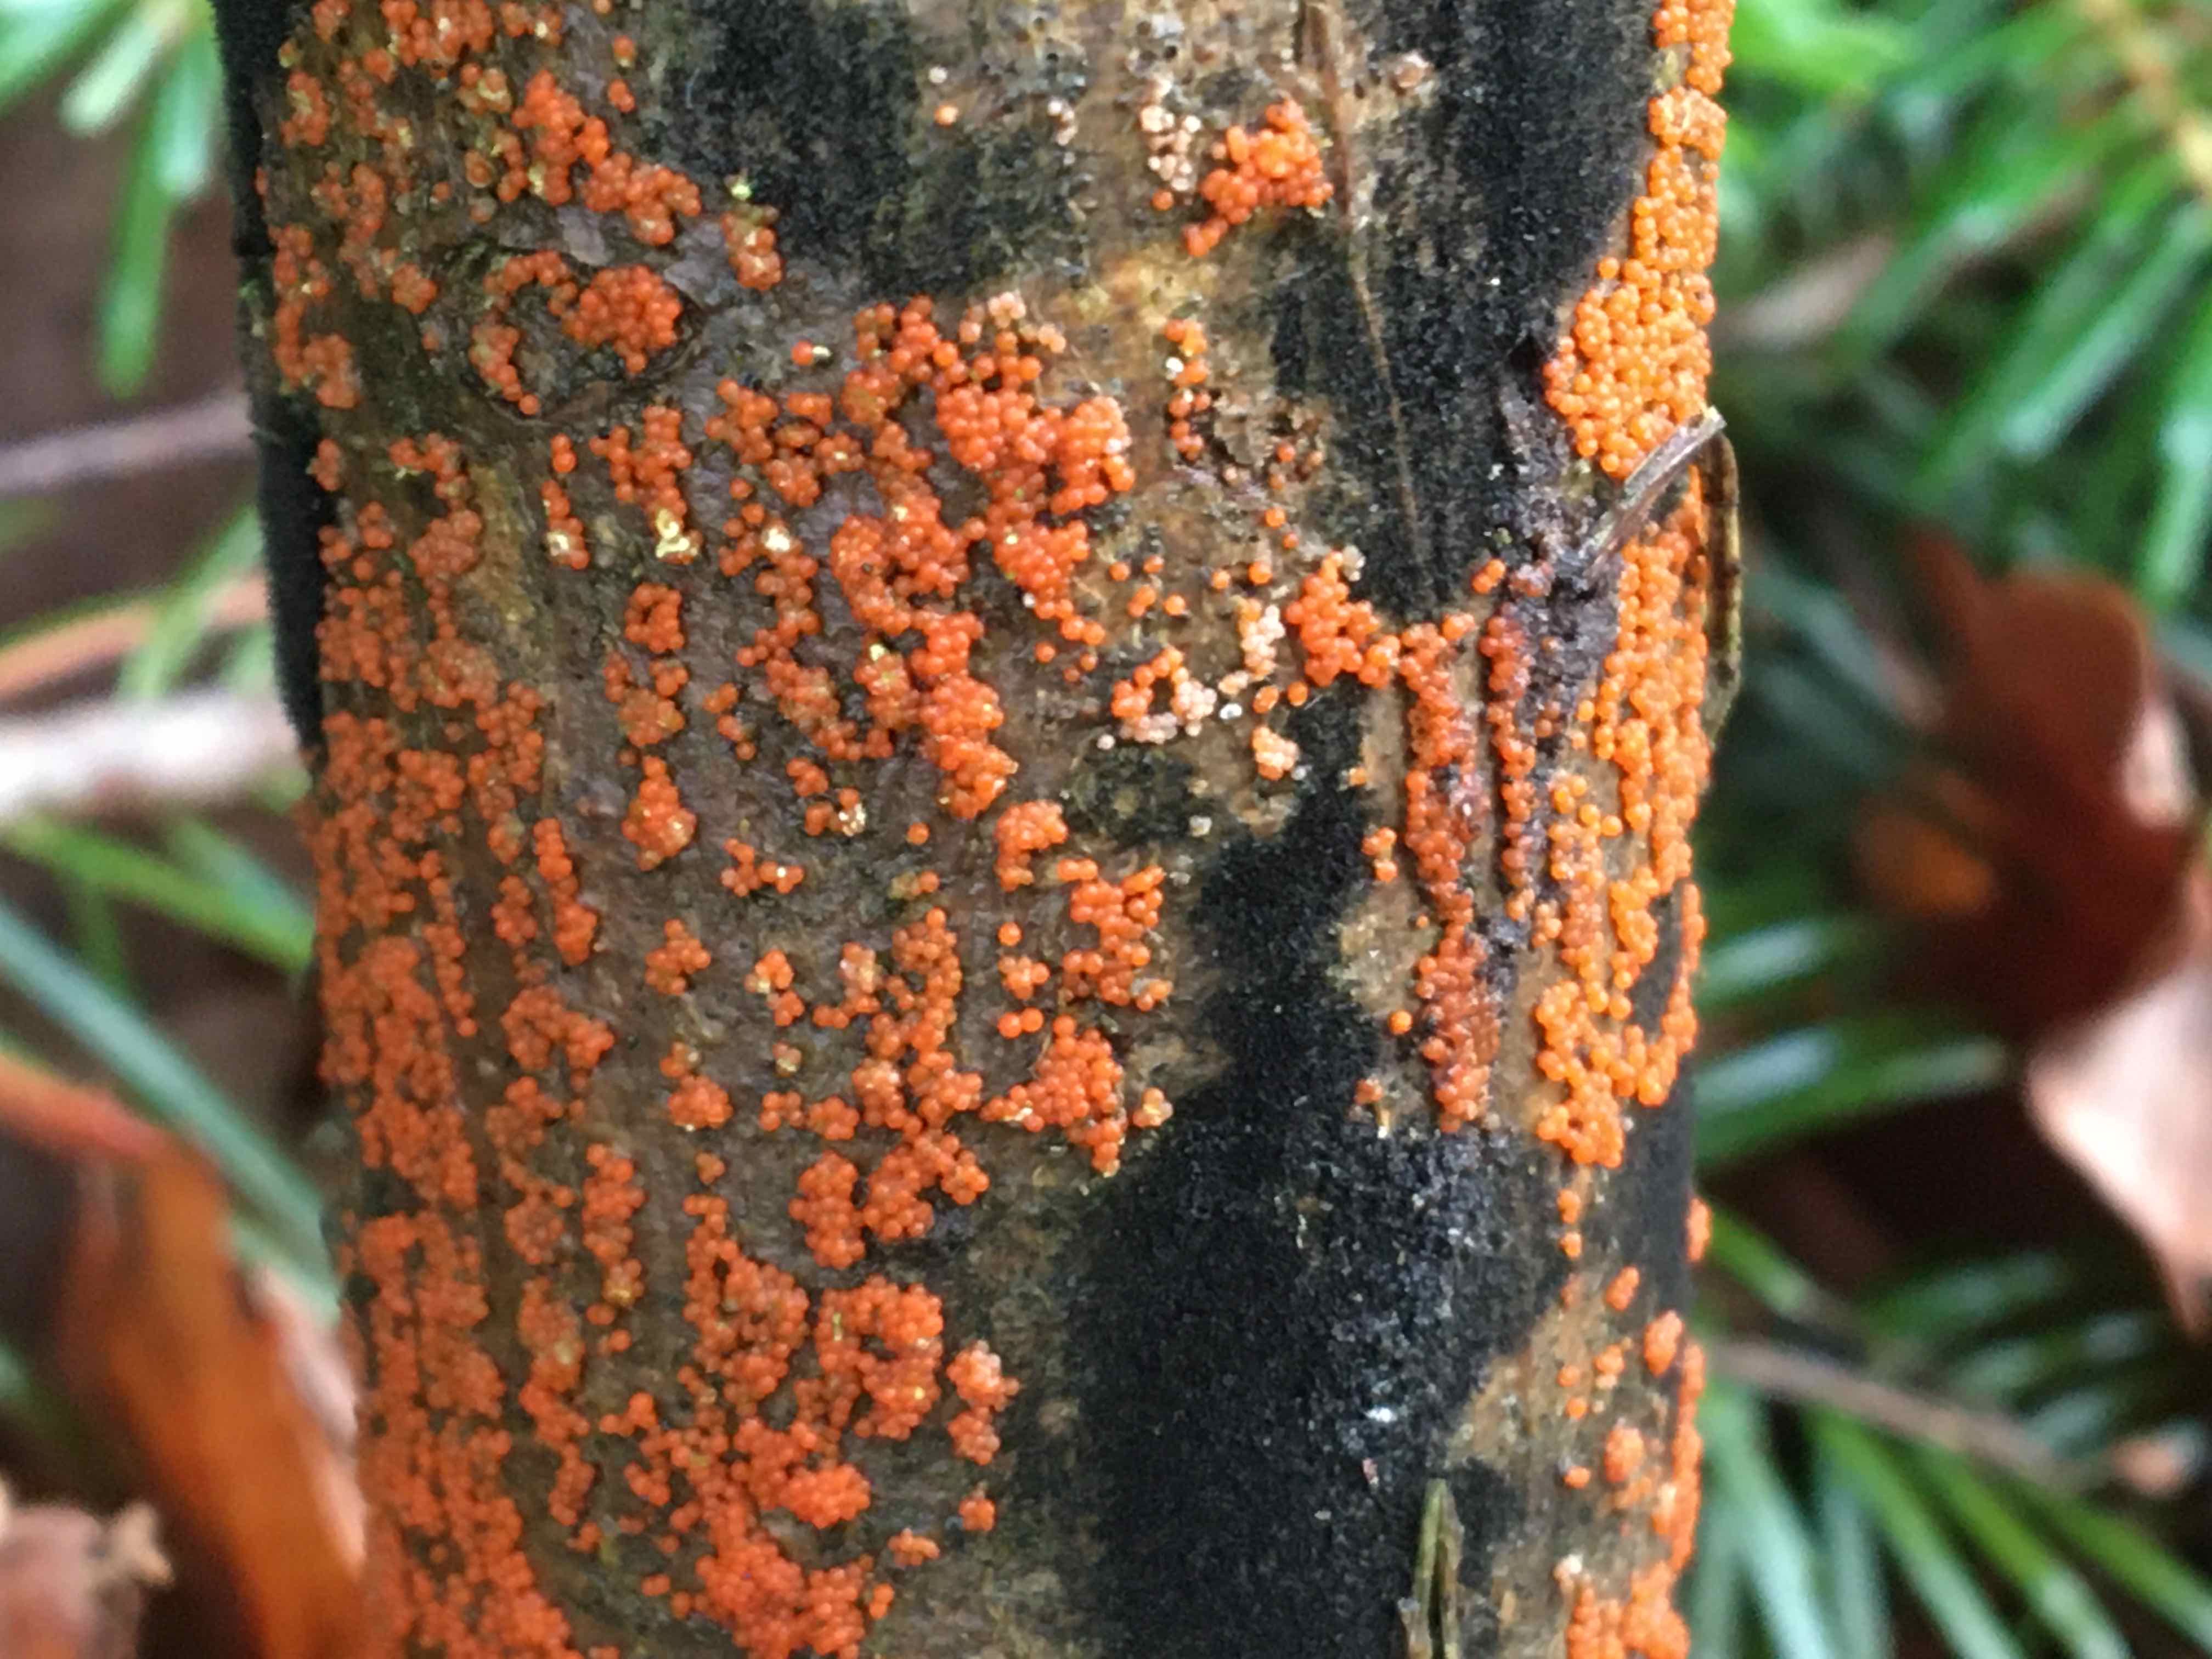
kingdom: Fungi
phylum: Ascomycota
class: Sordariomycetes
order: Hypocreales
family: Bionectriaceae
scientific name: Bionectriaceae
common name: gyldenkernefamilien
